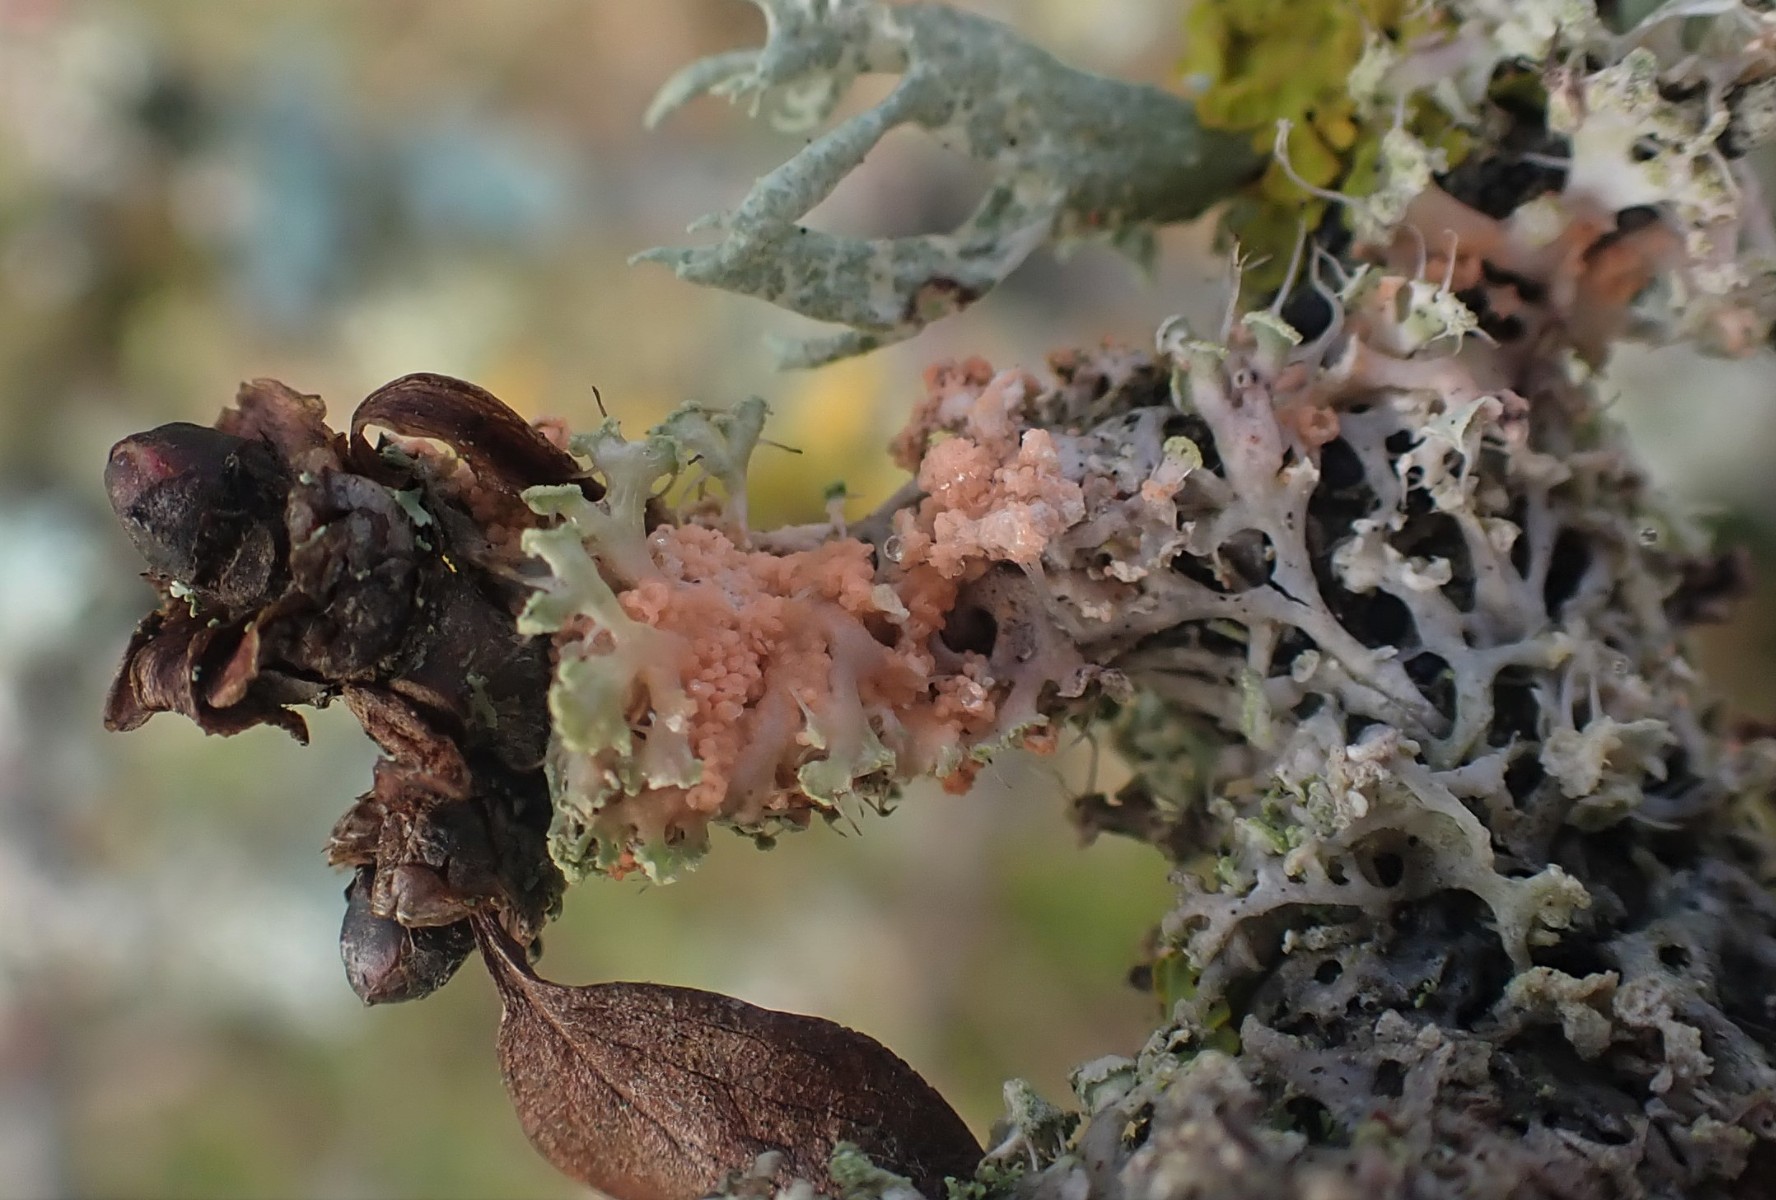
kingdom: Fungi
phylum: Basidiomycota
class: Agaricomycetes
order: Corticiales
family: Corticiaceae
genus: Erythricium
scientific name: Erythricium aurantiacum
